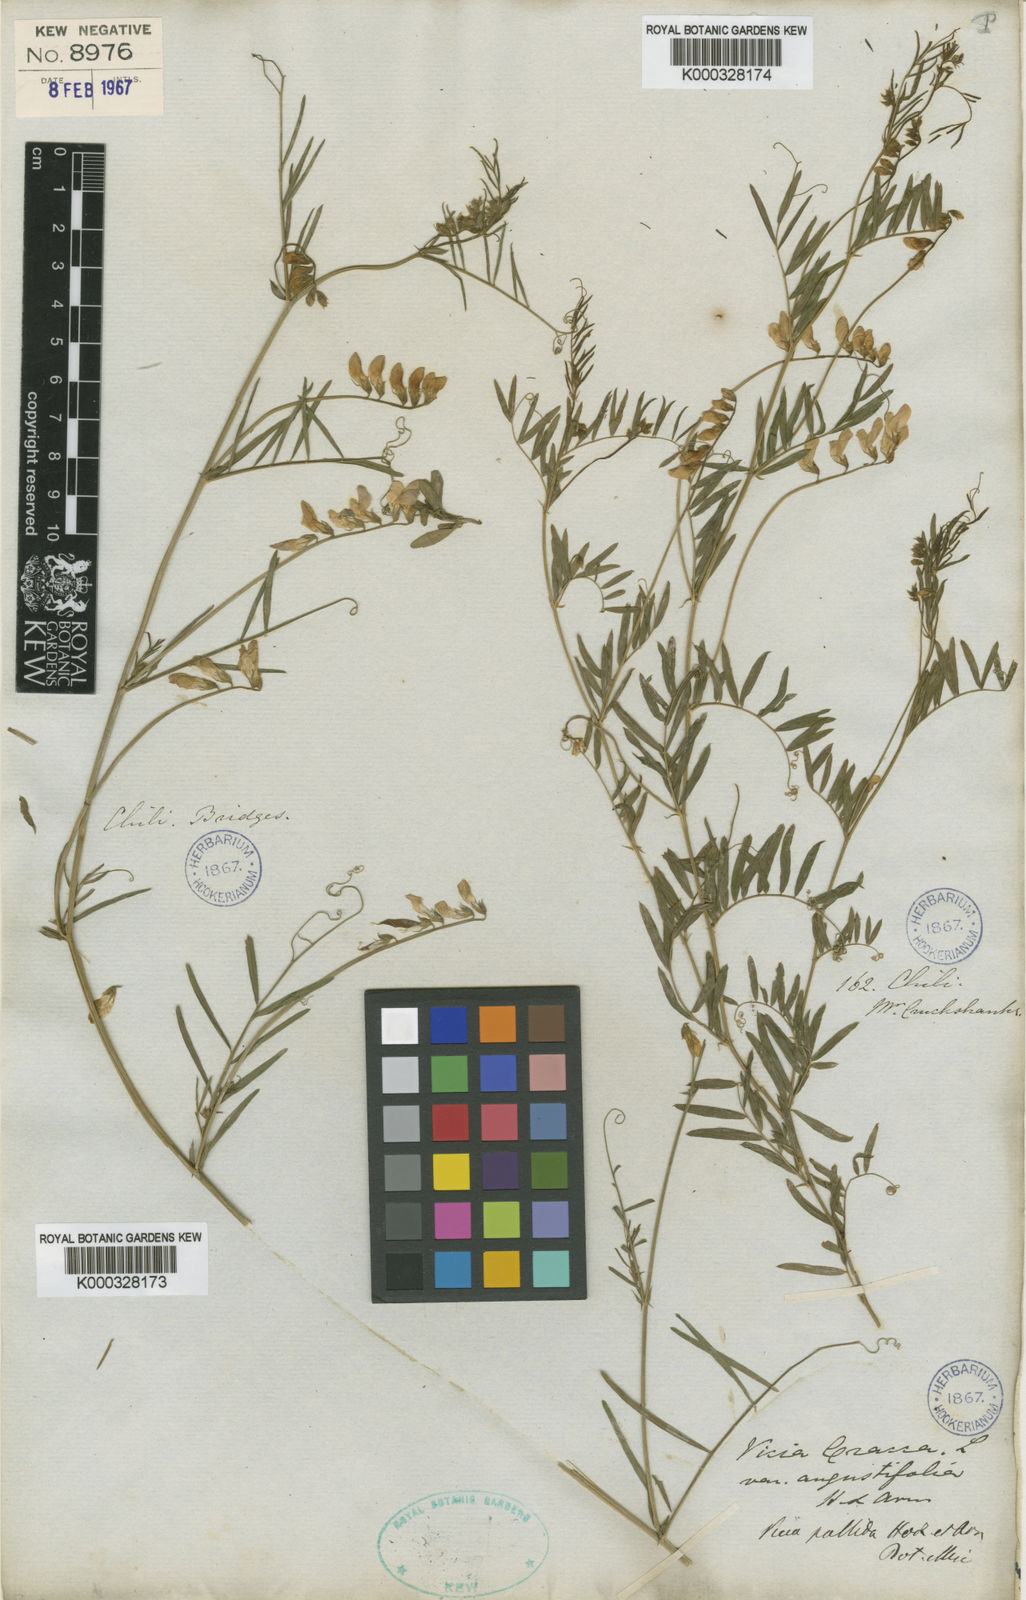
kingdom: Plantae
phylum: Tracheophyta
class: Magnoliopsida
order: Fabales
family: Fabaceae
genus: Vicia
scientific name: Vicia pallida
